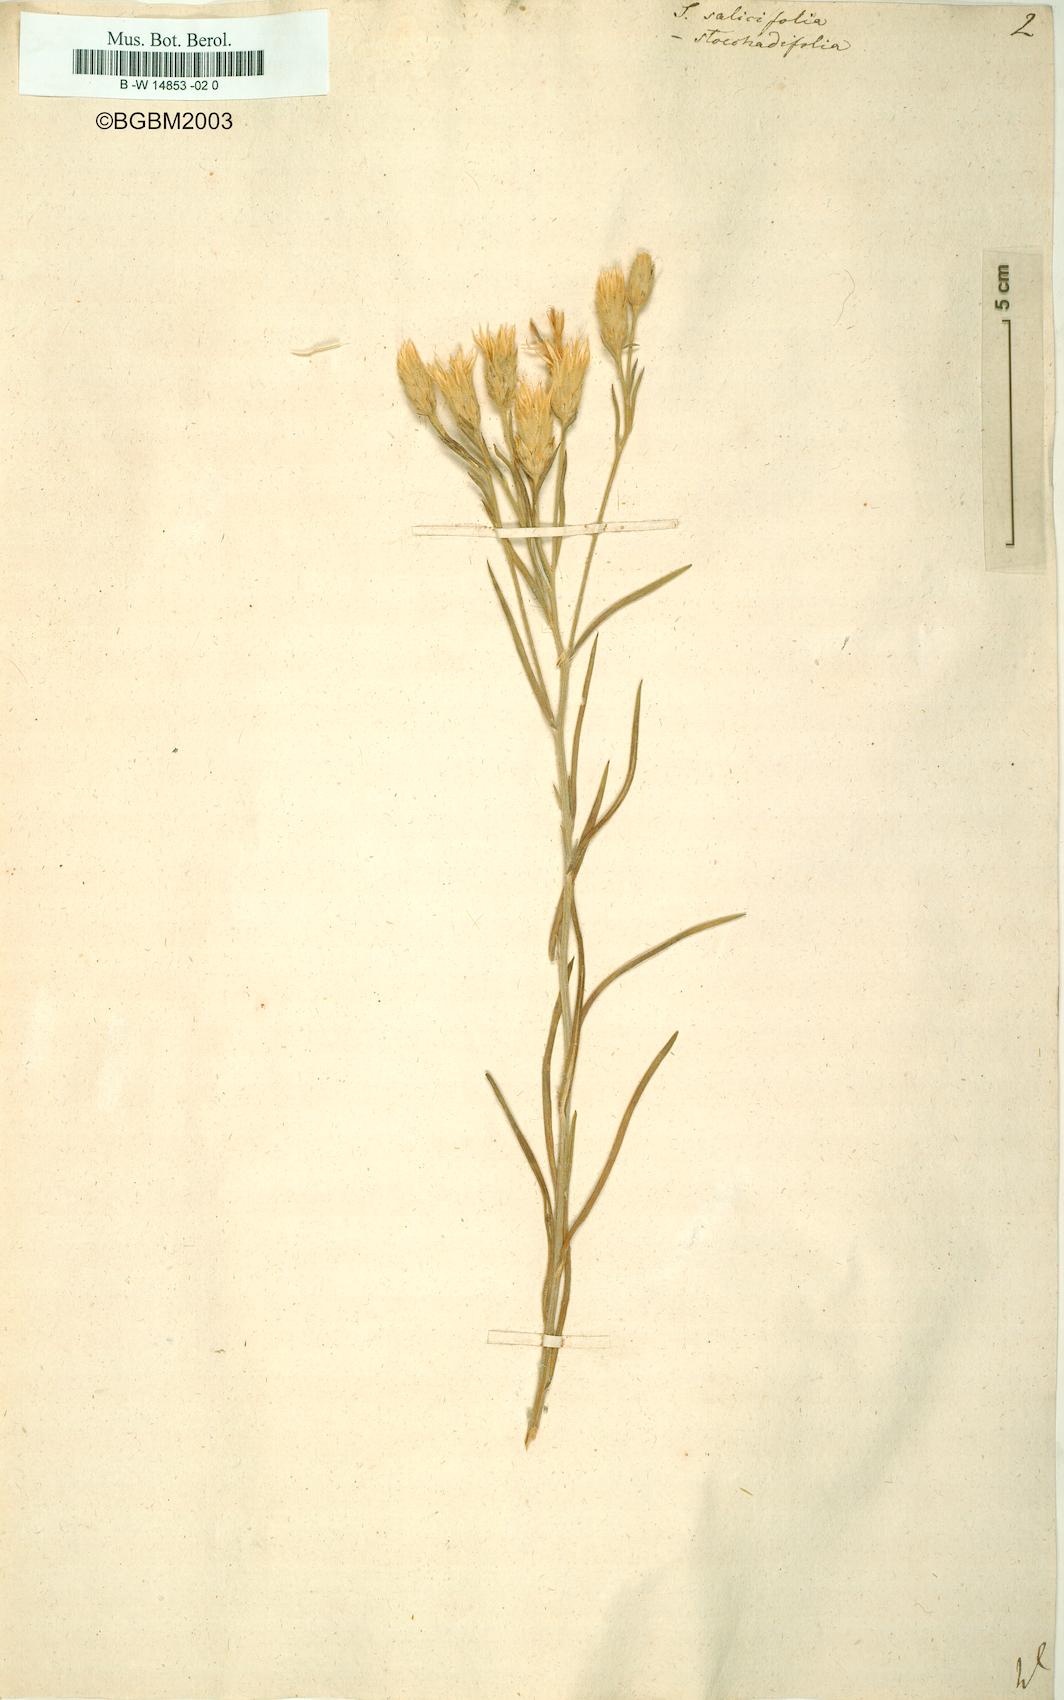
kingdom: Plantae
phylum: Tracheophyta
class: Magnoliopsida
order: Asterales
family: Asteraceae
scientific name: Asteraceae
